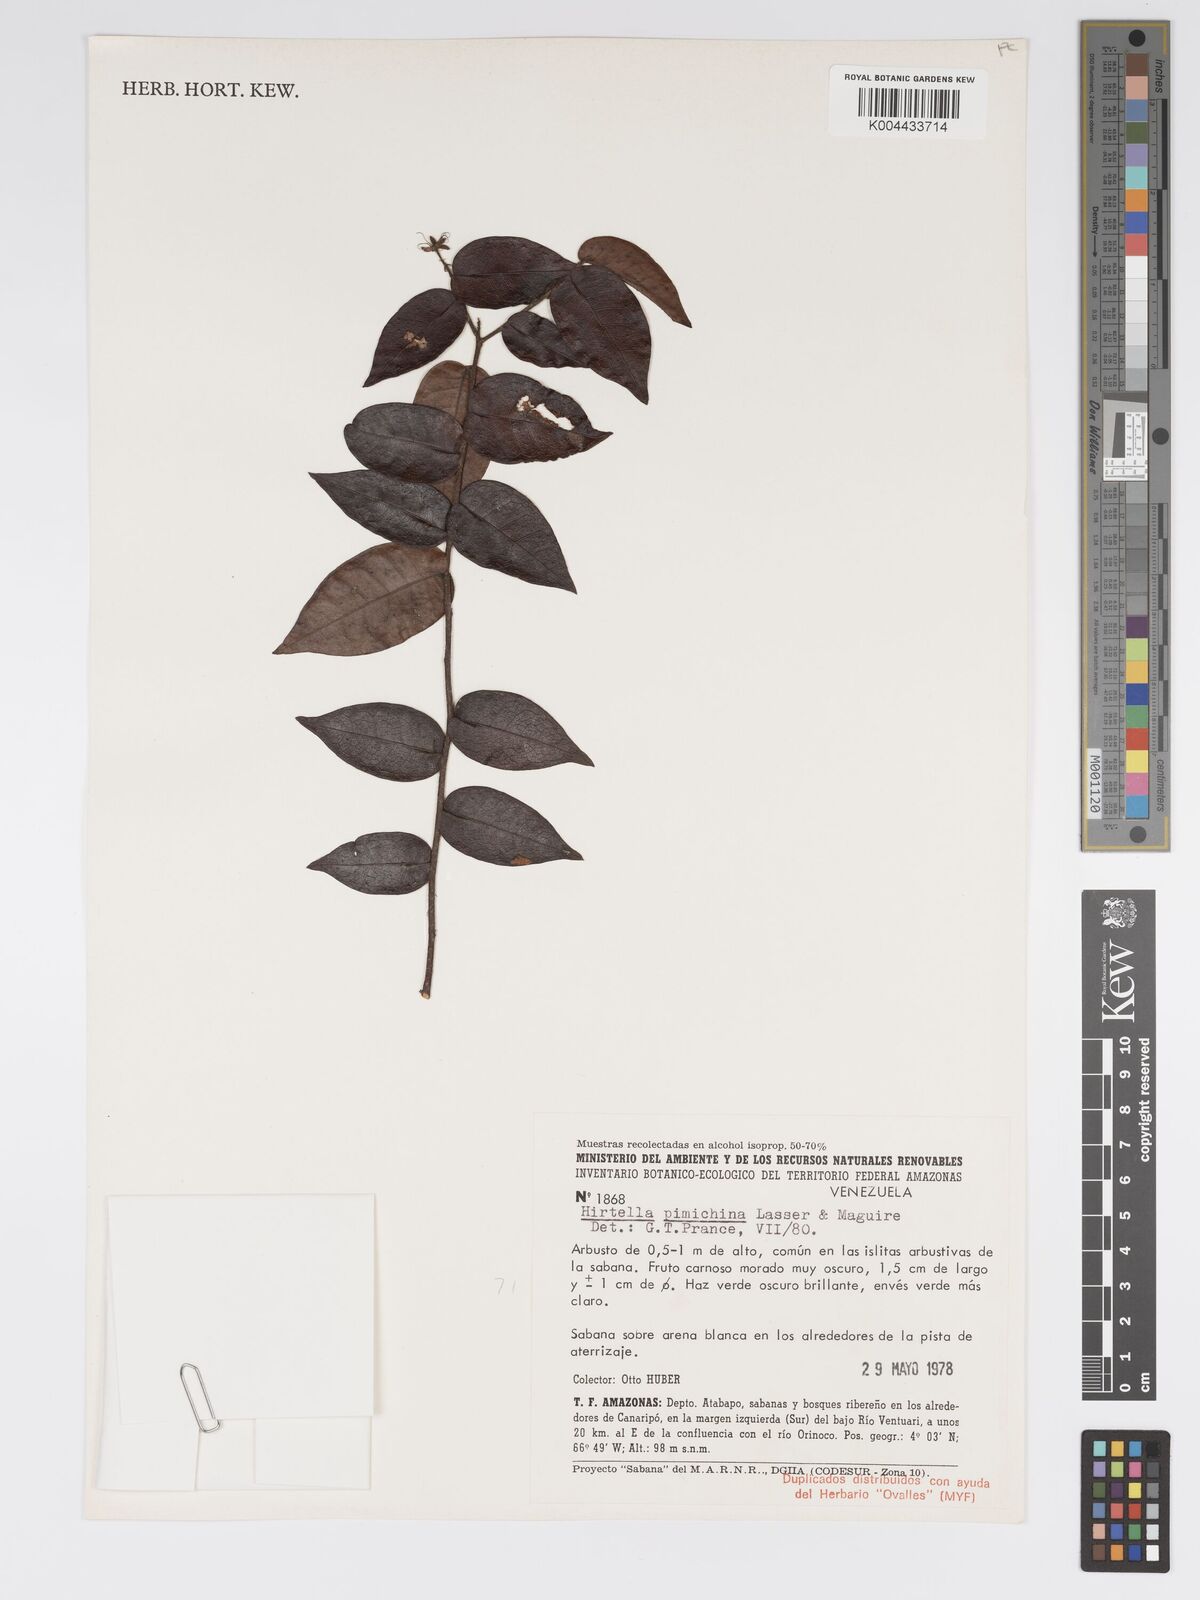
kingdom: Plantae
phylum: Tracheophyta
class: Magnoliopsida
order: Malpighiales
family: Chrysobalanaceae
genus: Hirtella
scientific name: Hirtella pimichina
